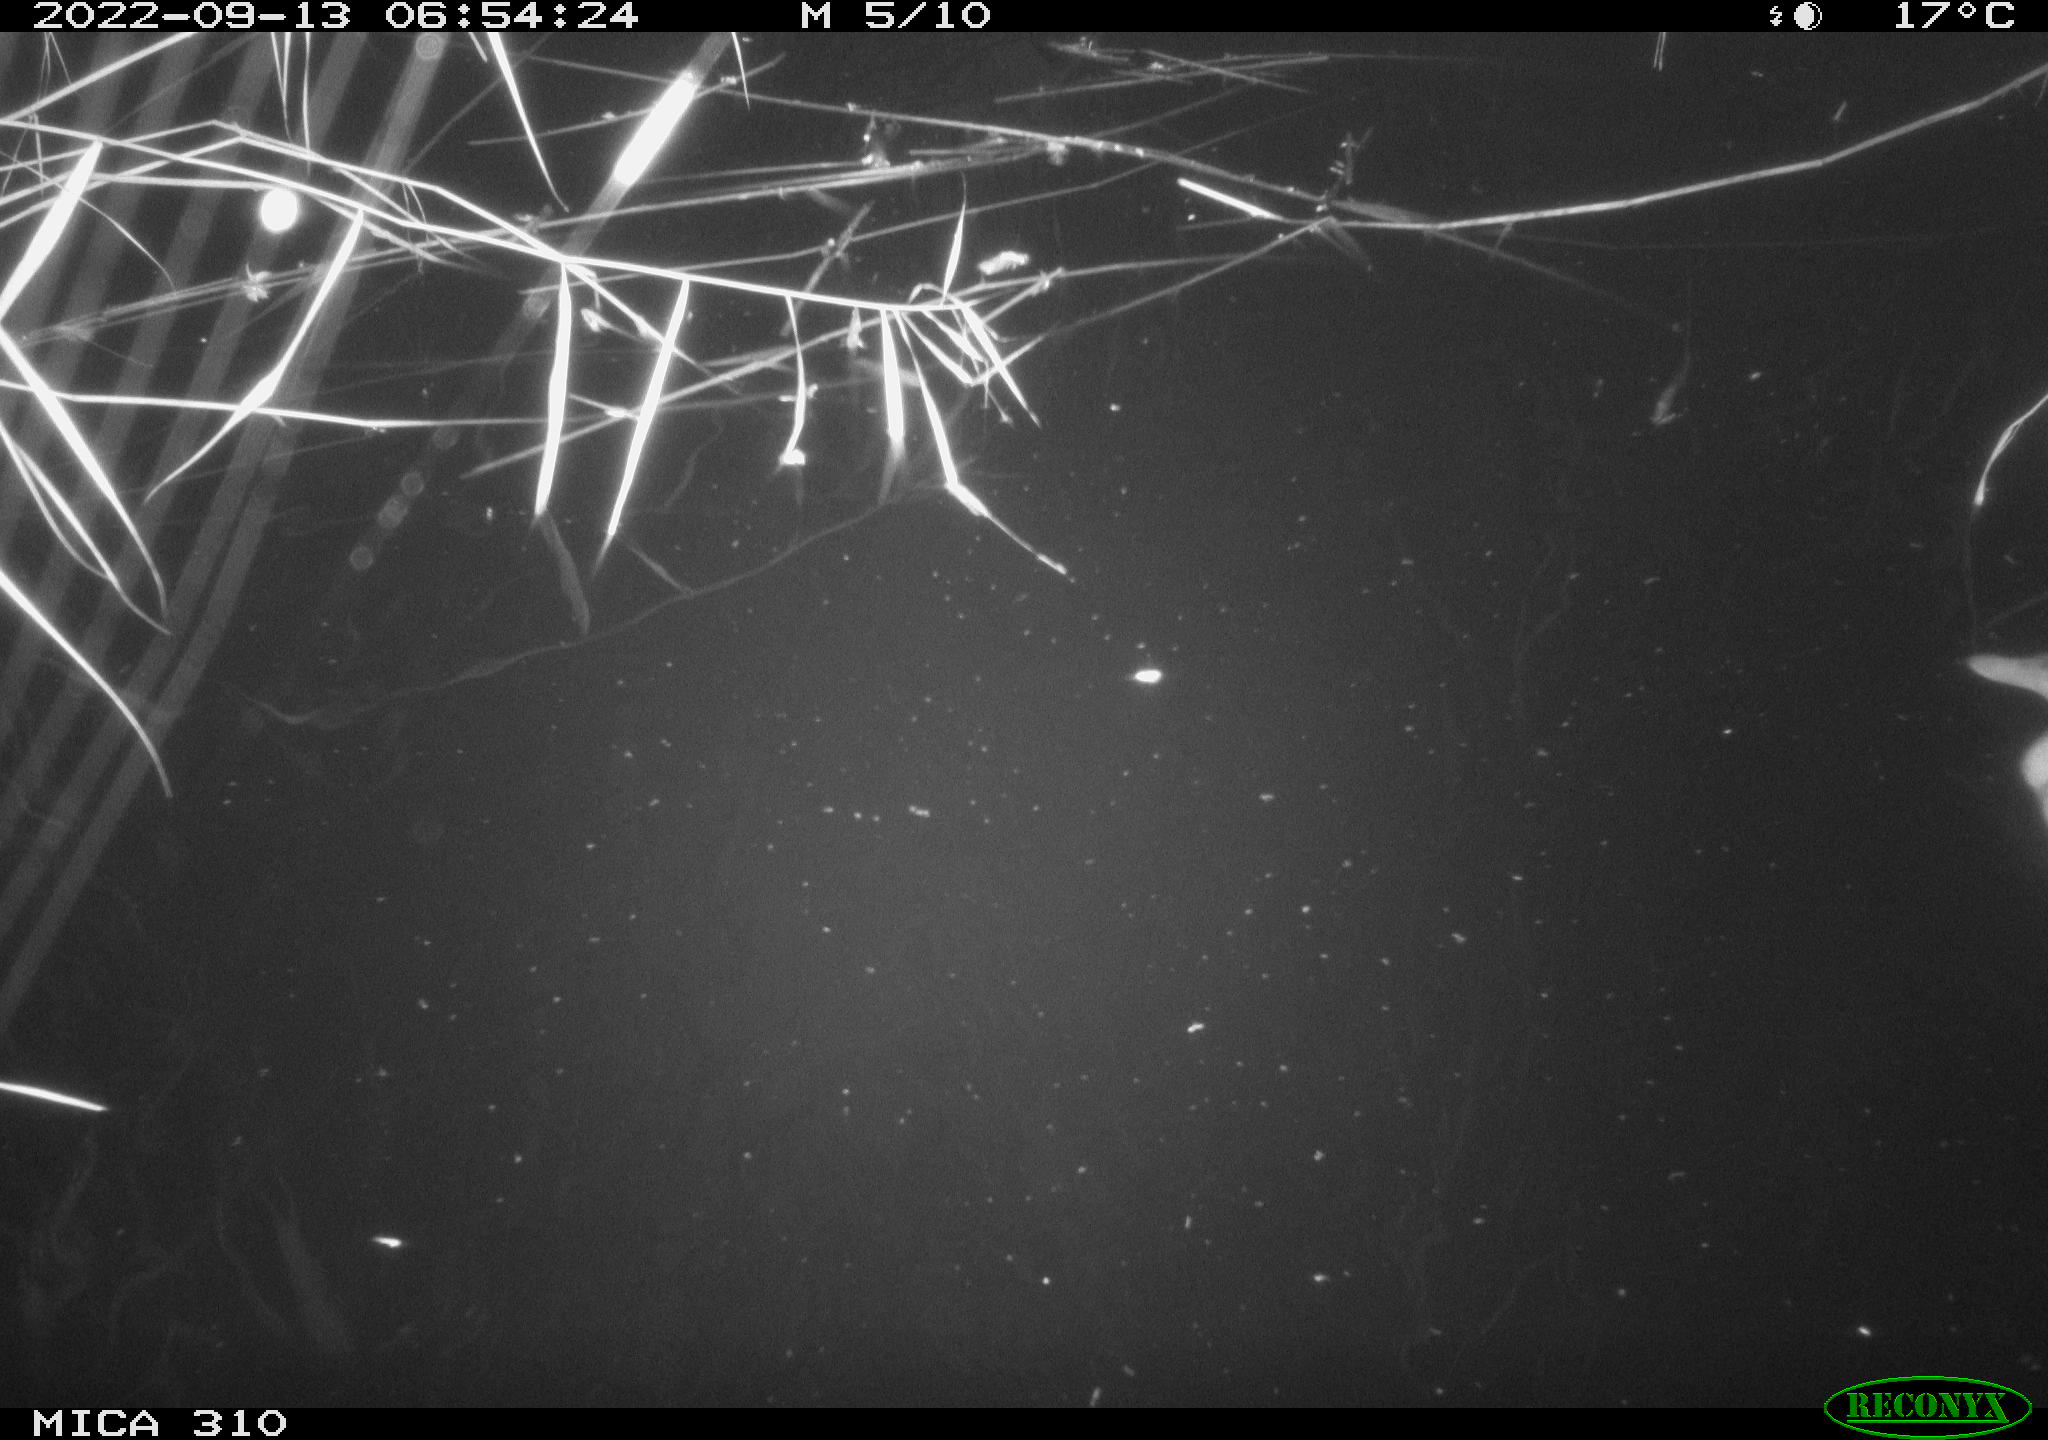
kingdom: Animalia
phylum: Chordata
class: Aves
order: Anseriformes
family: Anatidae
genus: Anas
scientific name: Anas
